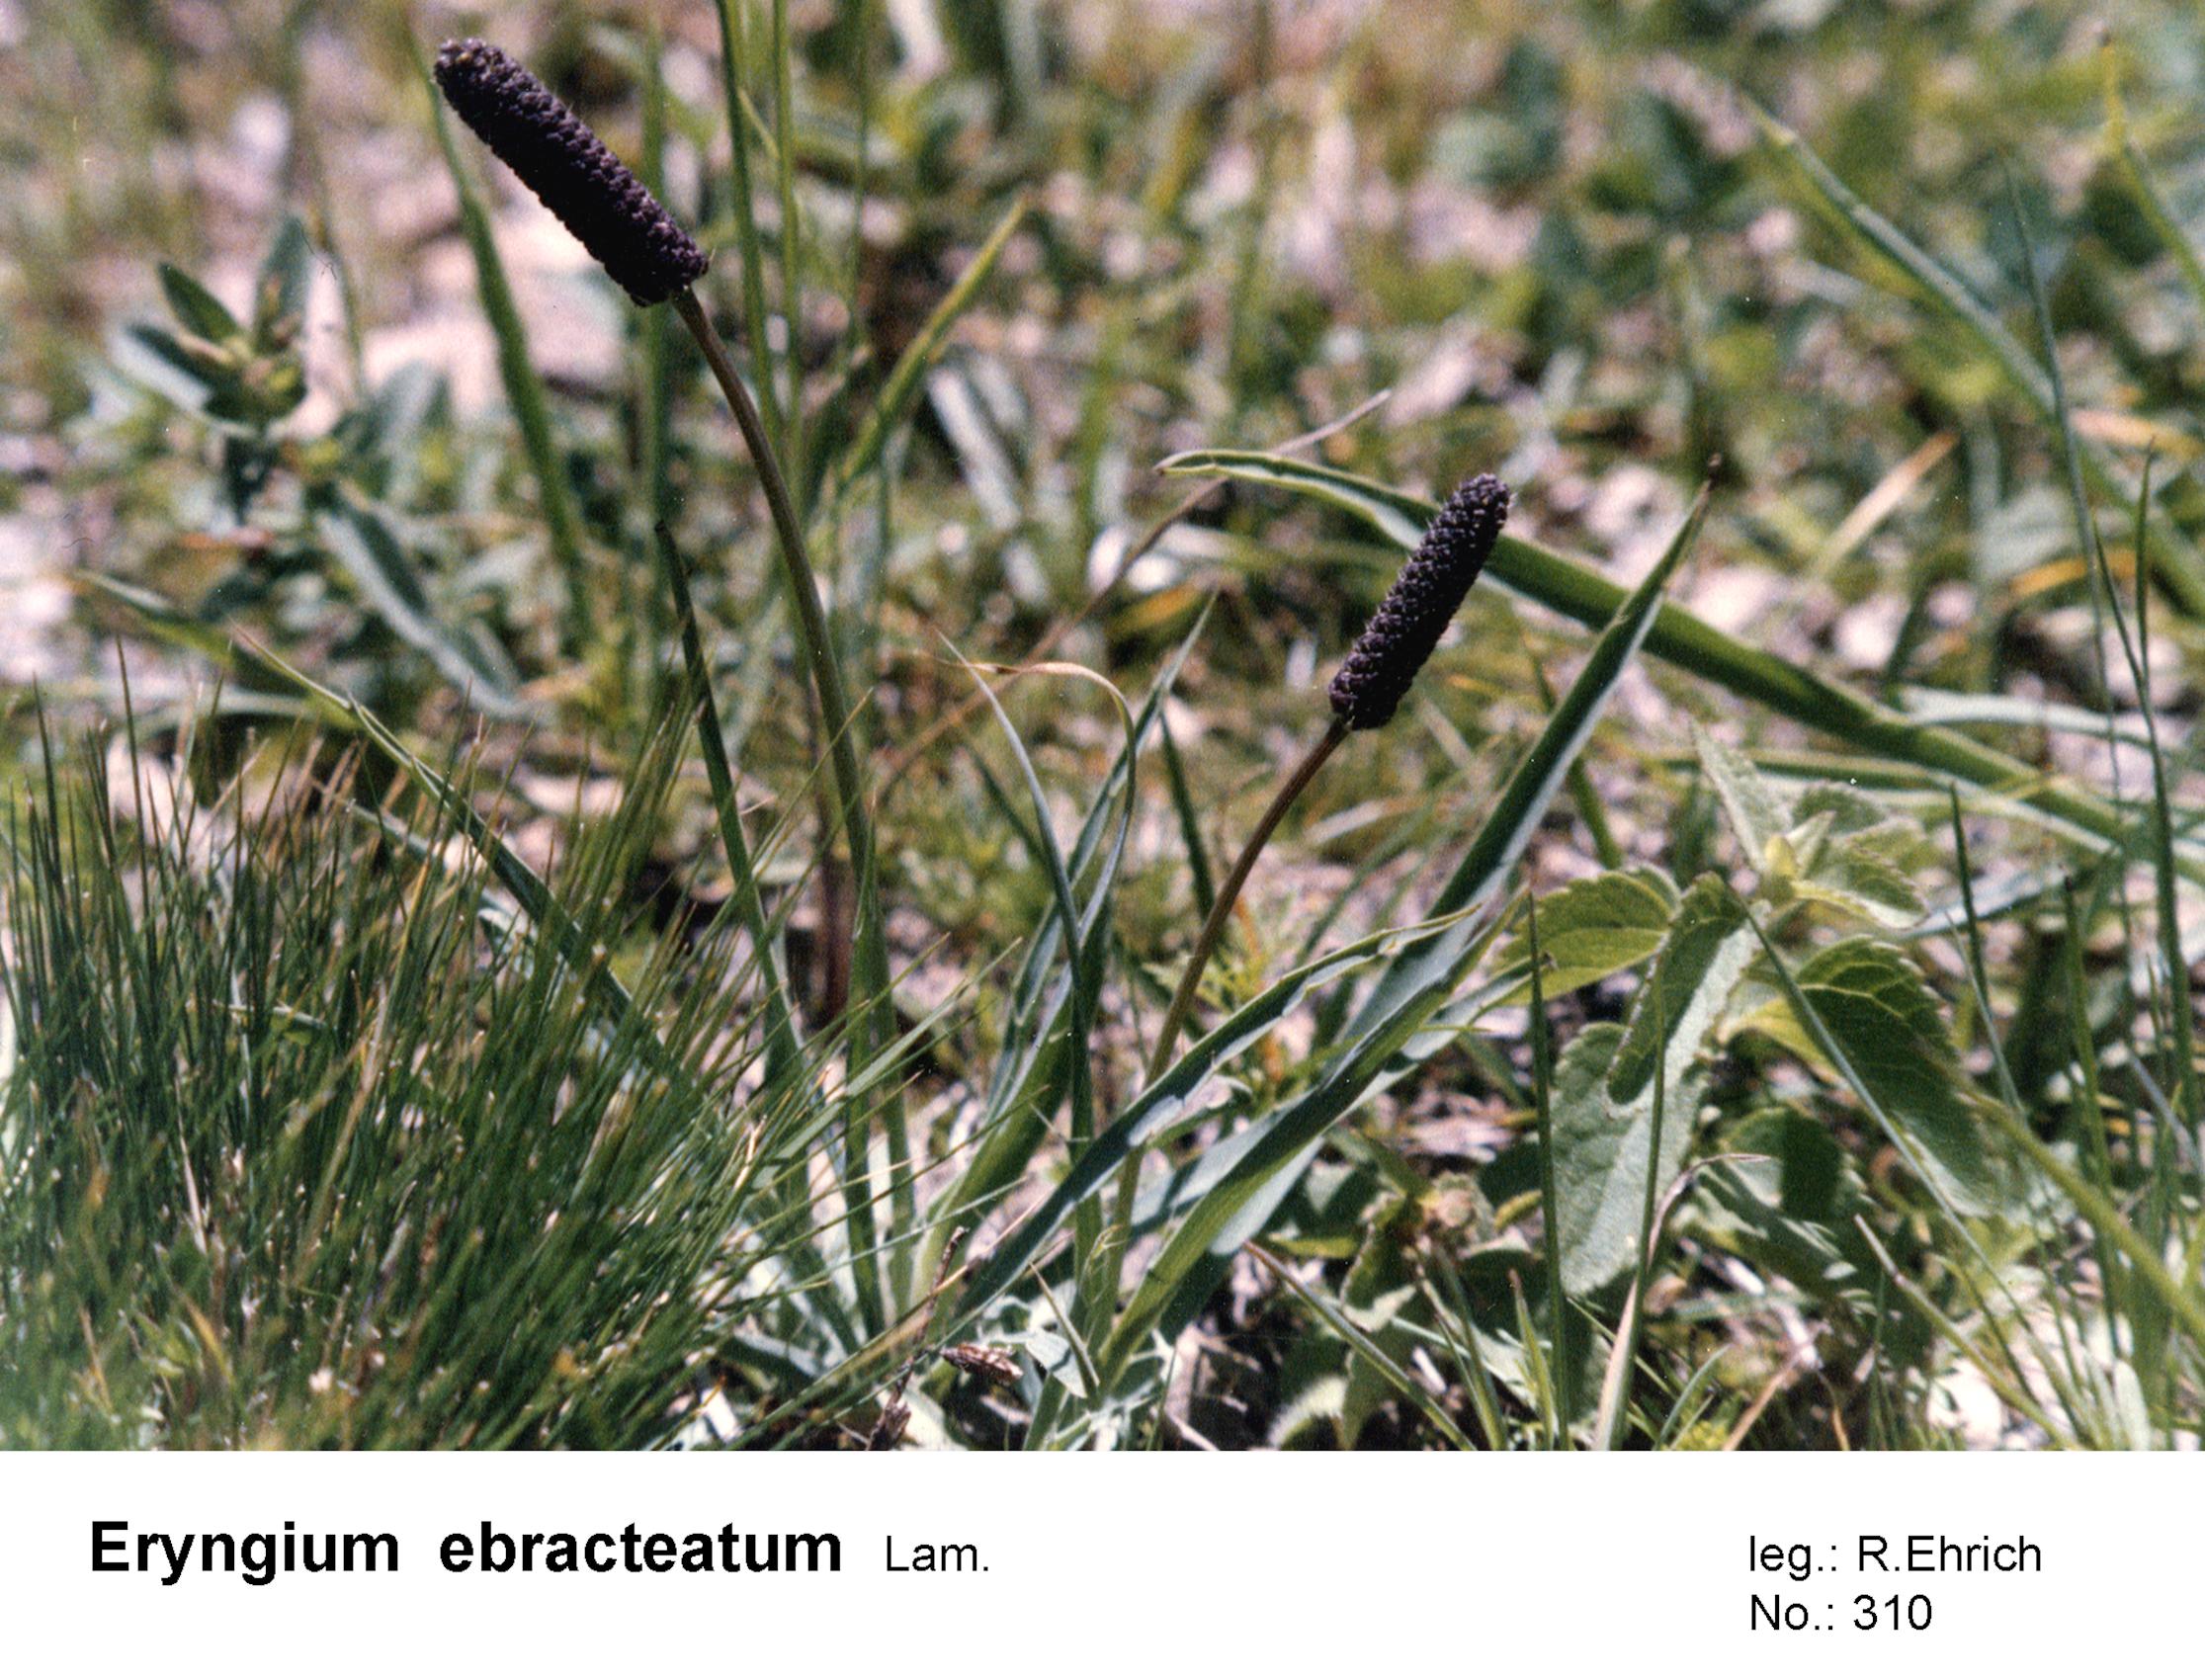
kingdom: Plantae
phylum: Tracheophyta
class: Magnoliopsida
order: Apiales
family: Apiaceae
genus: Eryngium
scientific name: Eryngium ebracteatum
